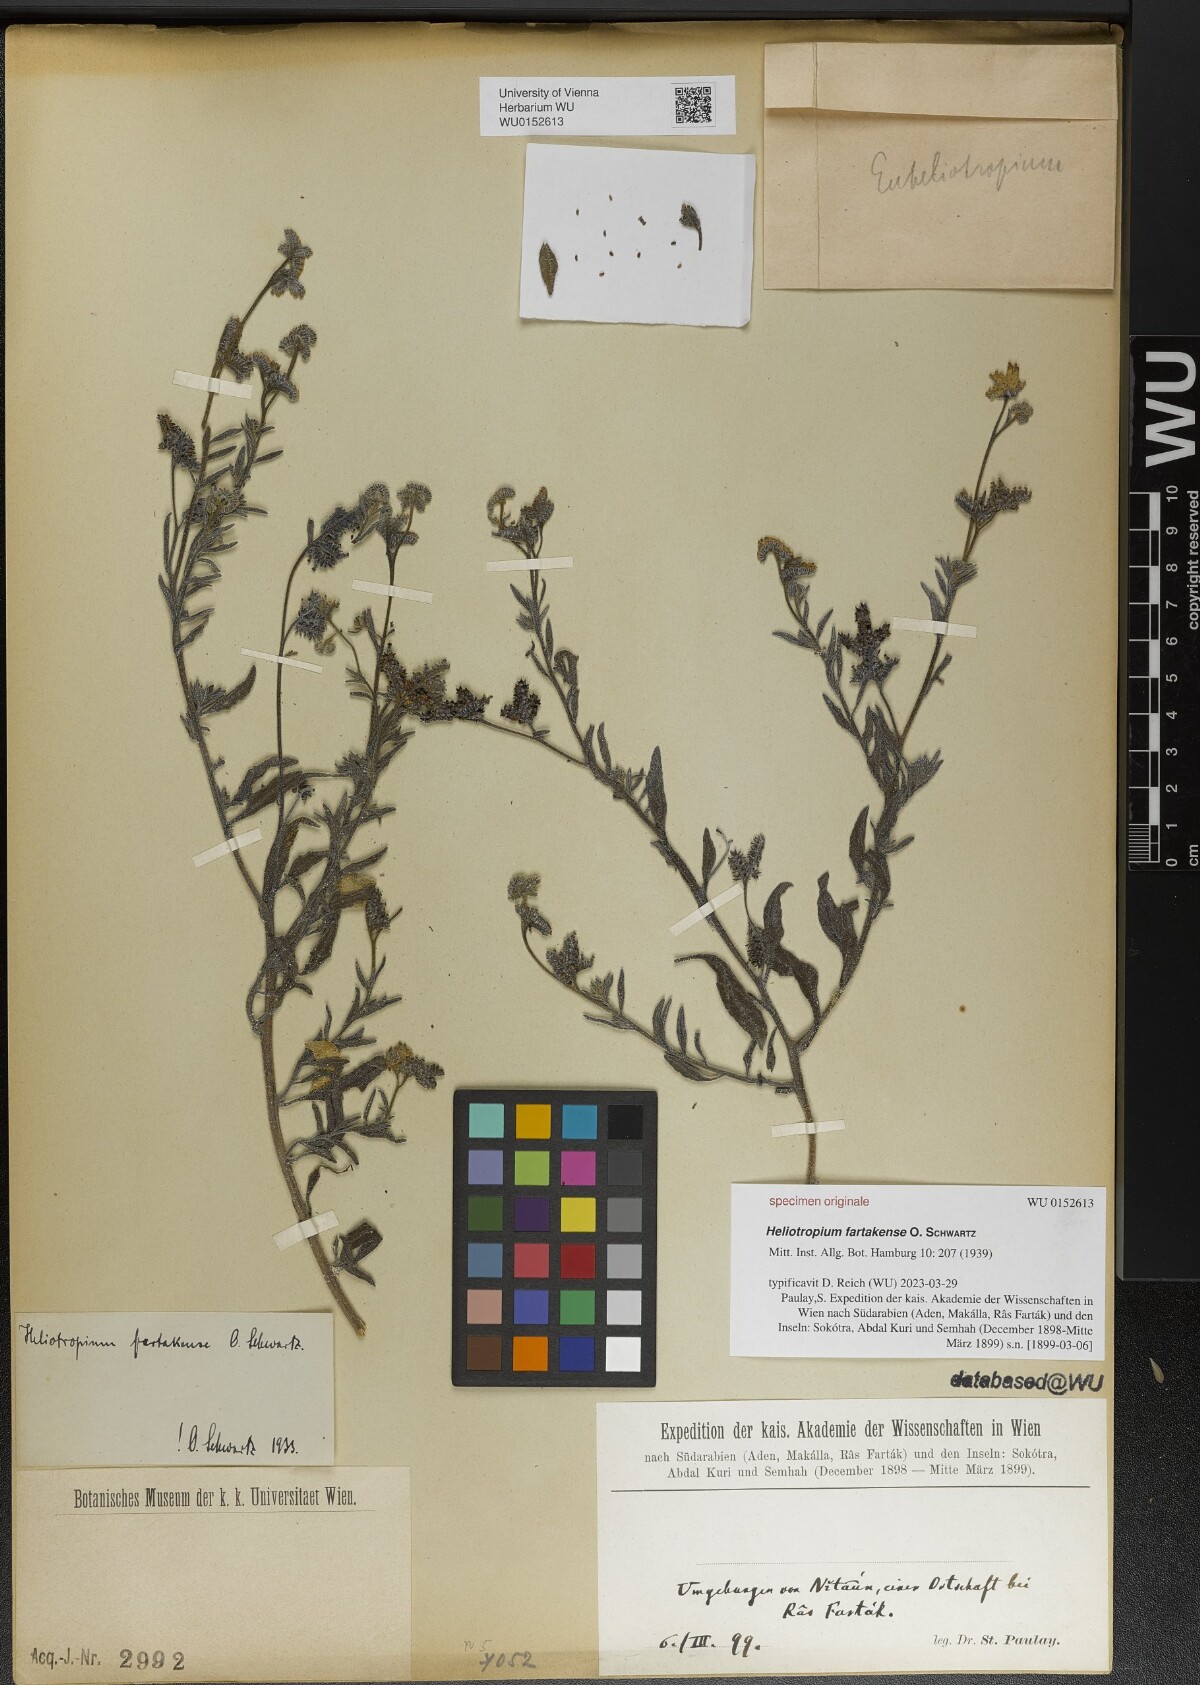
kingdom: Plantae
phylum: Tracheophyta
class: Magnoliopsida
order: Boraginales
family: Heliotropiaceae
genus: Heliotropium
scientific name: Heliotropium bacciferum
